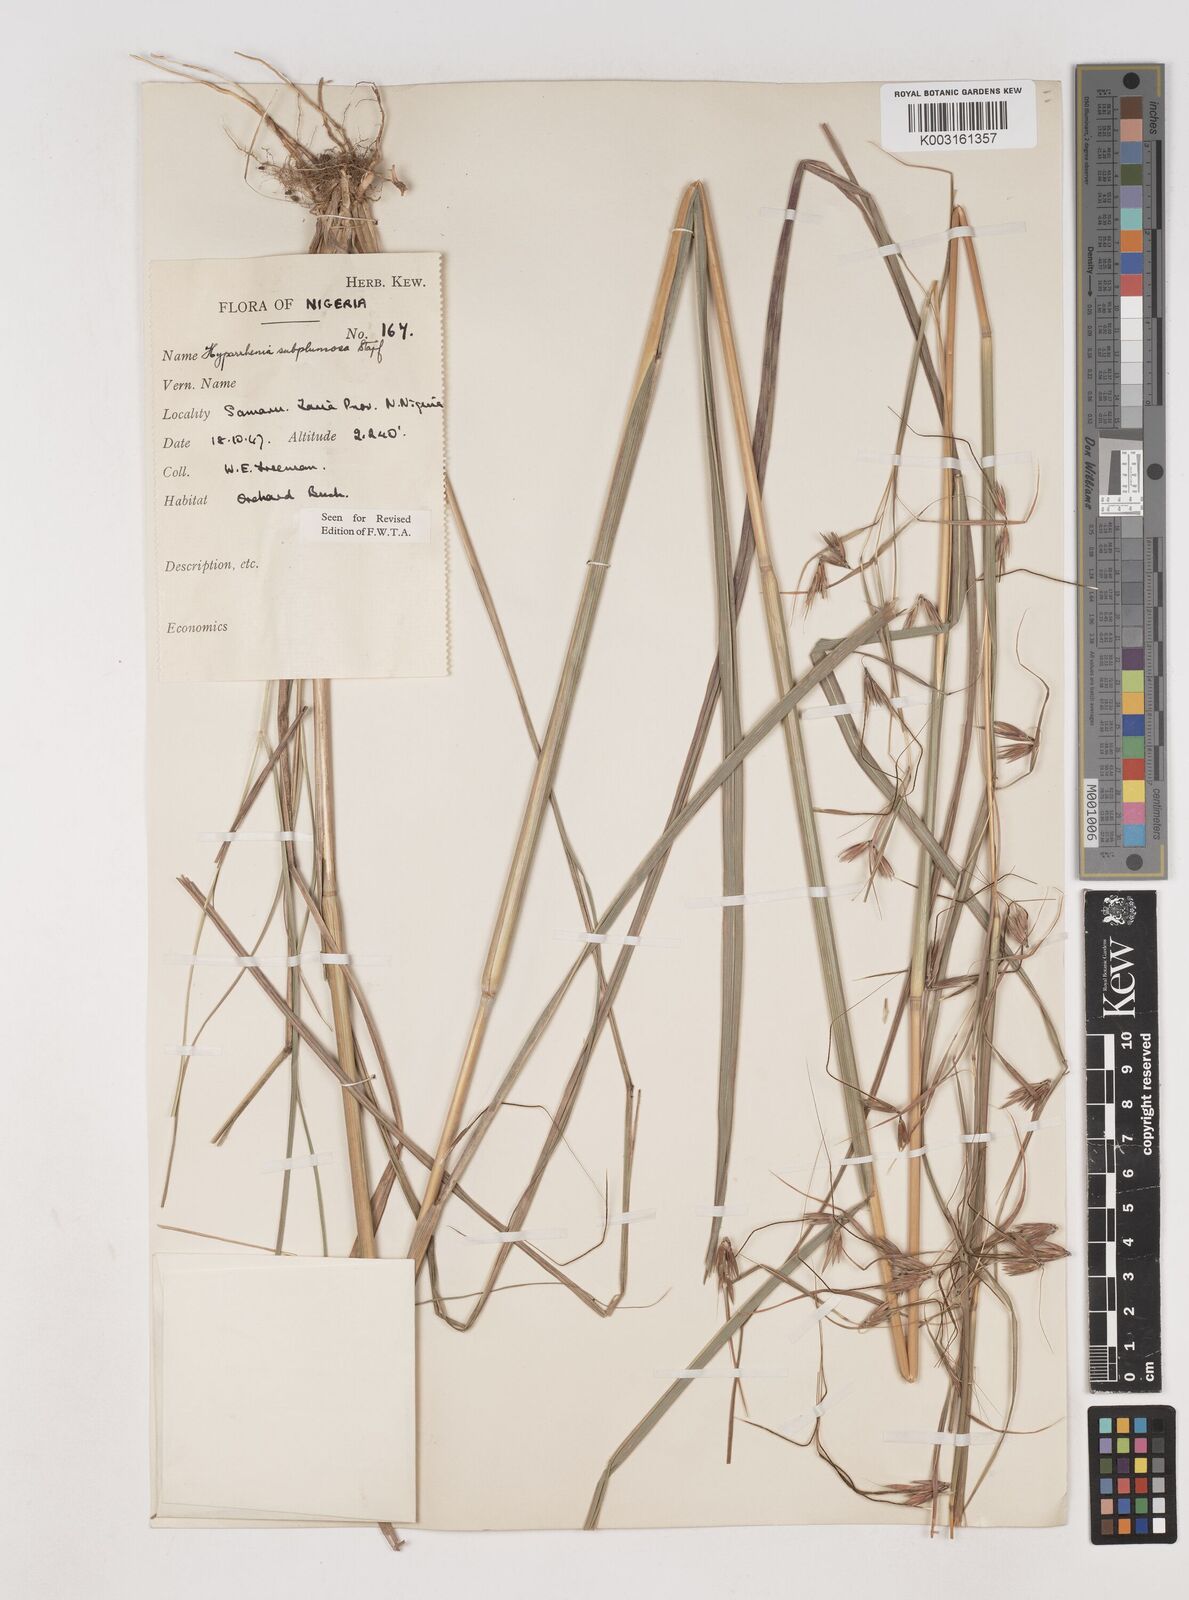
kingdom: Plantae
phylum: Tracheophyta
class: Liliopsida
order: Poales
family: Poaceae
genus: Hyparrhenia
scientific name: Hyparrhenia subplumosa
